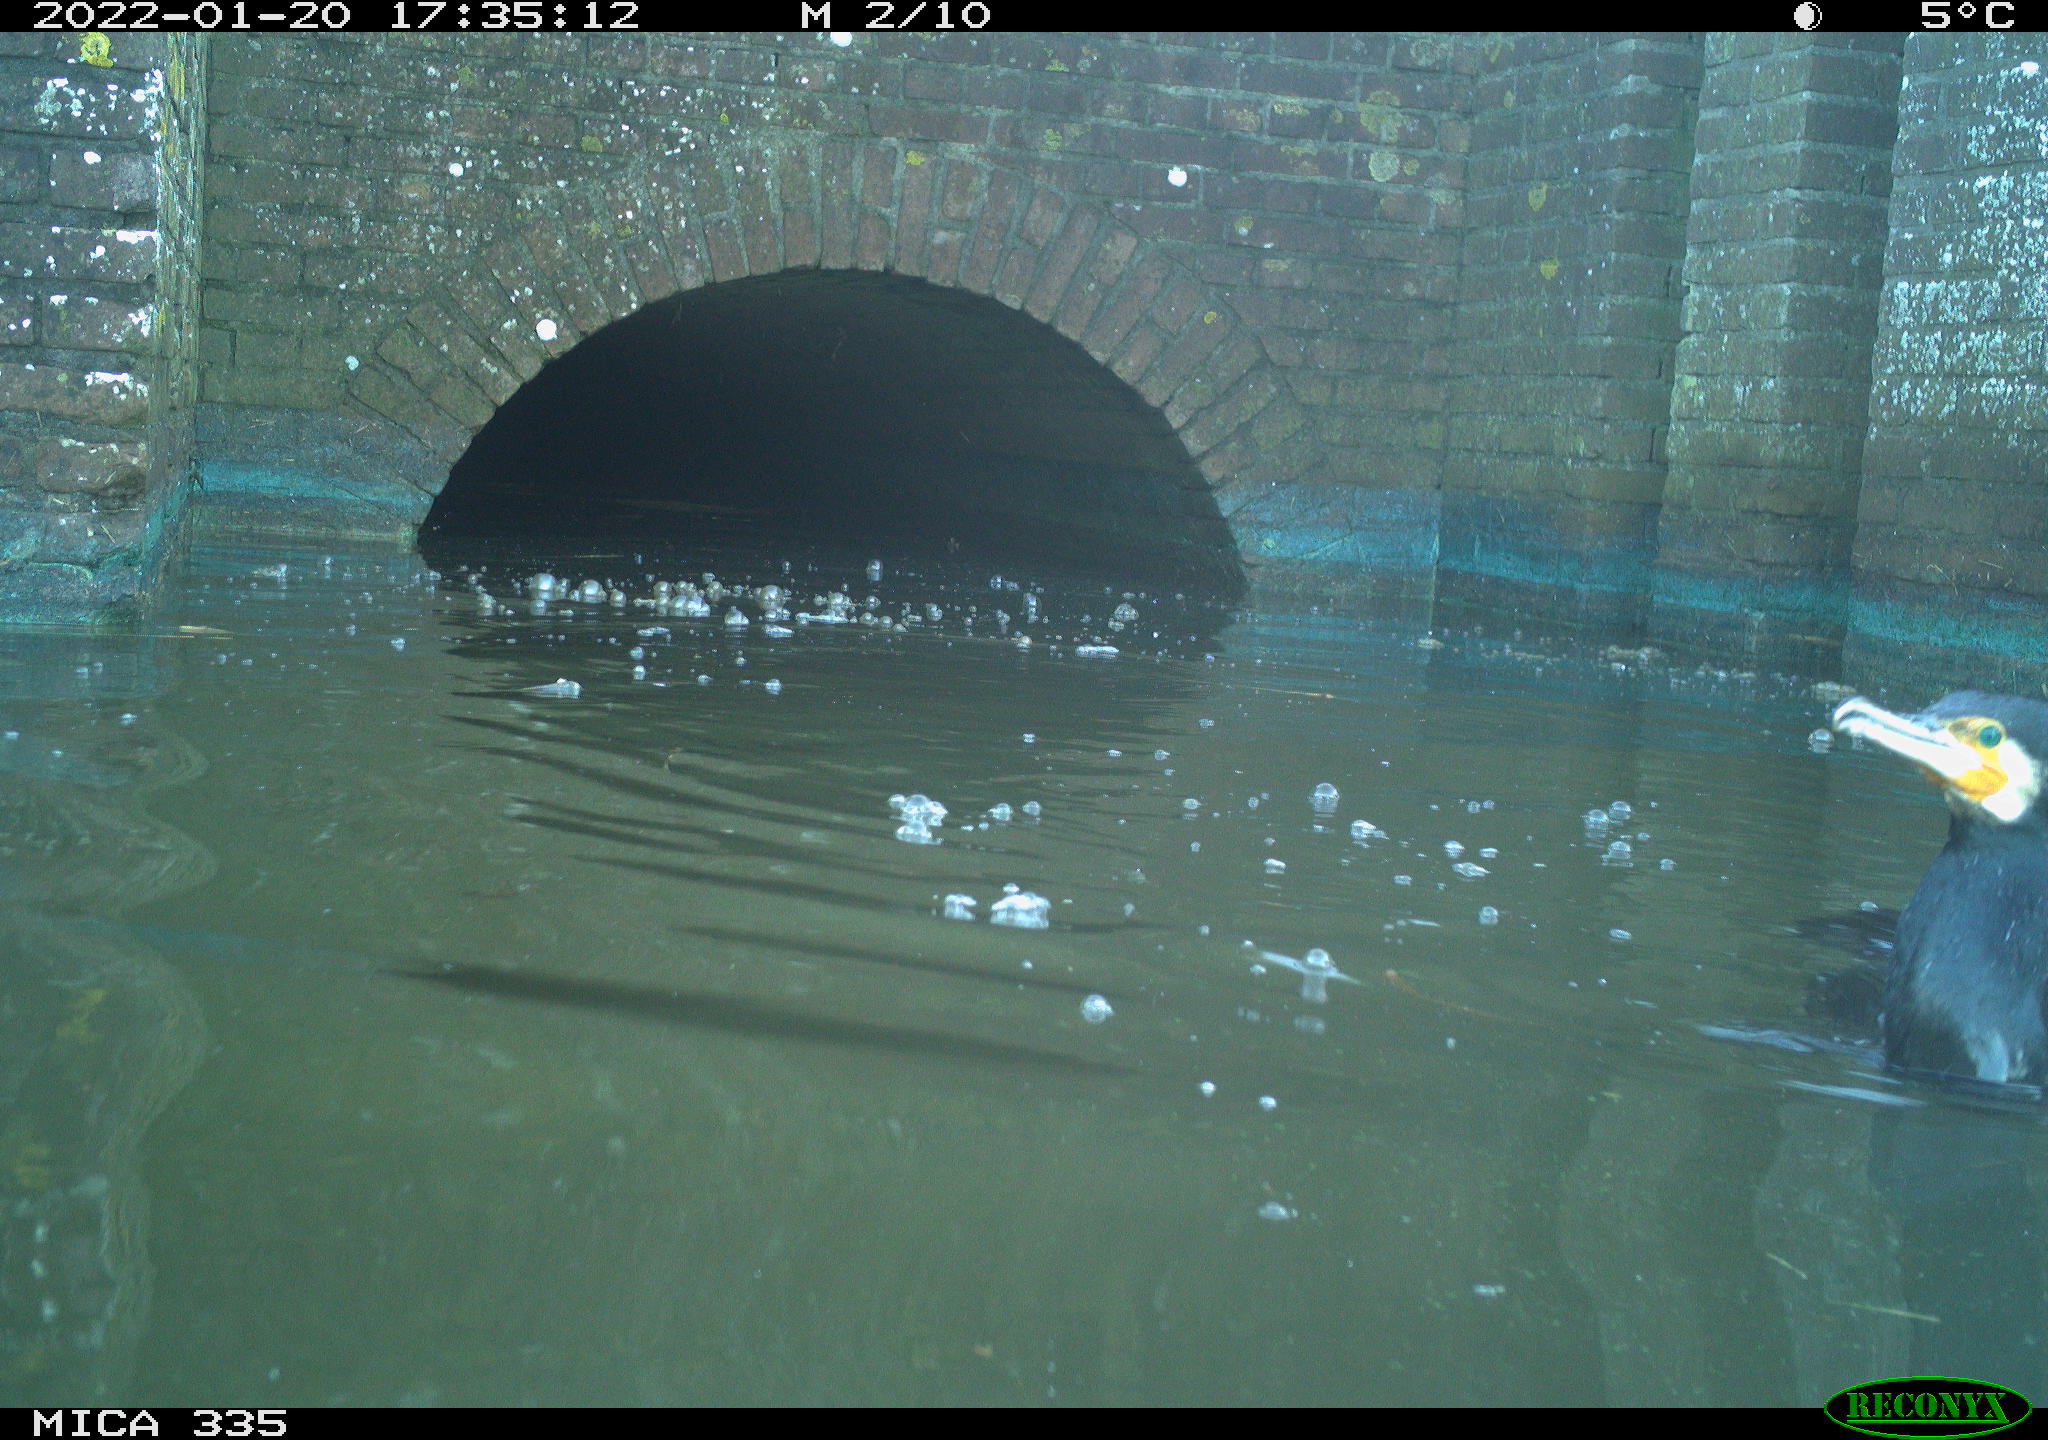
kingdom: Animalia
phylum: Chordata
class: Aves
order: Suliformes
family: Phalacrocoracidae
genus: Phalacrocorax
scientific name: Phalacrocorax carbo
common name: Great cormorant
